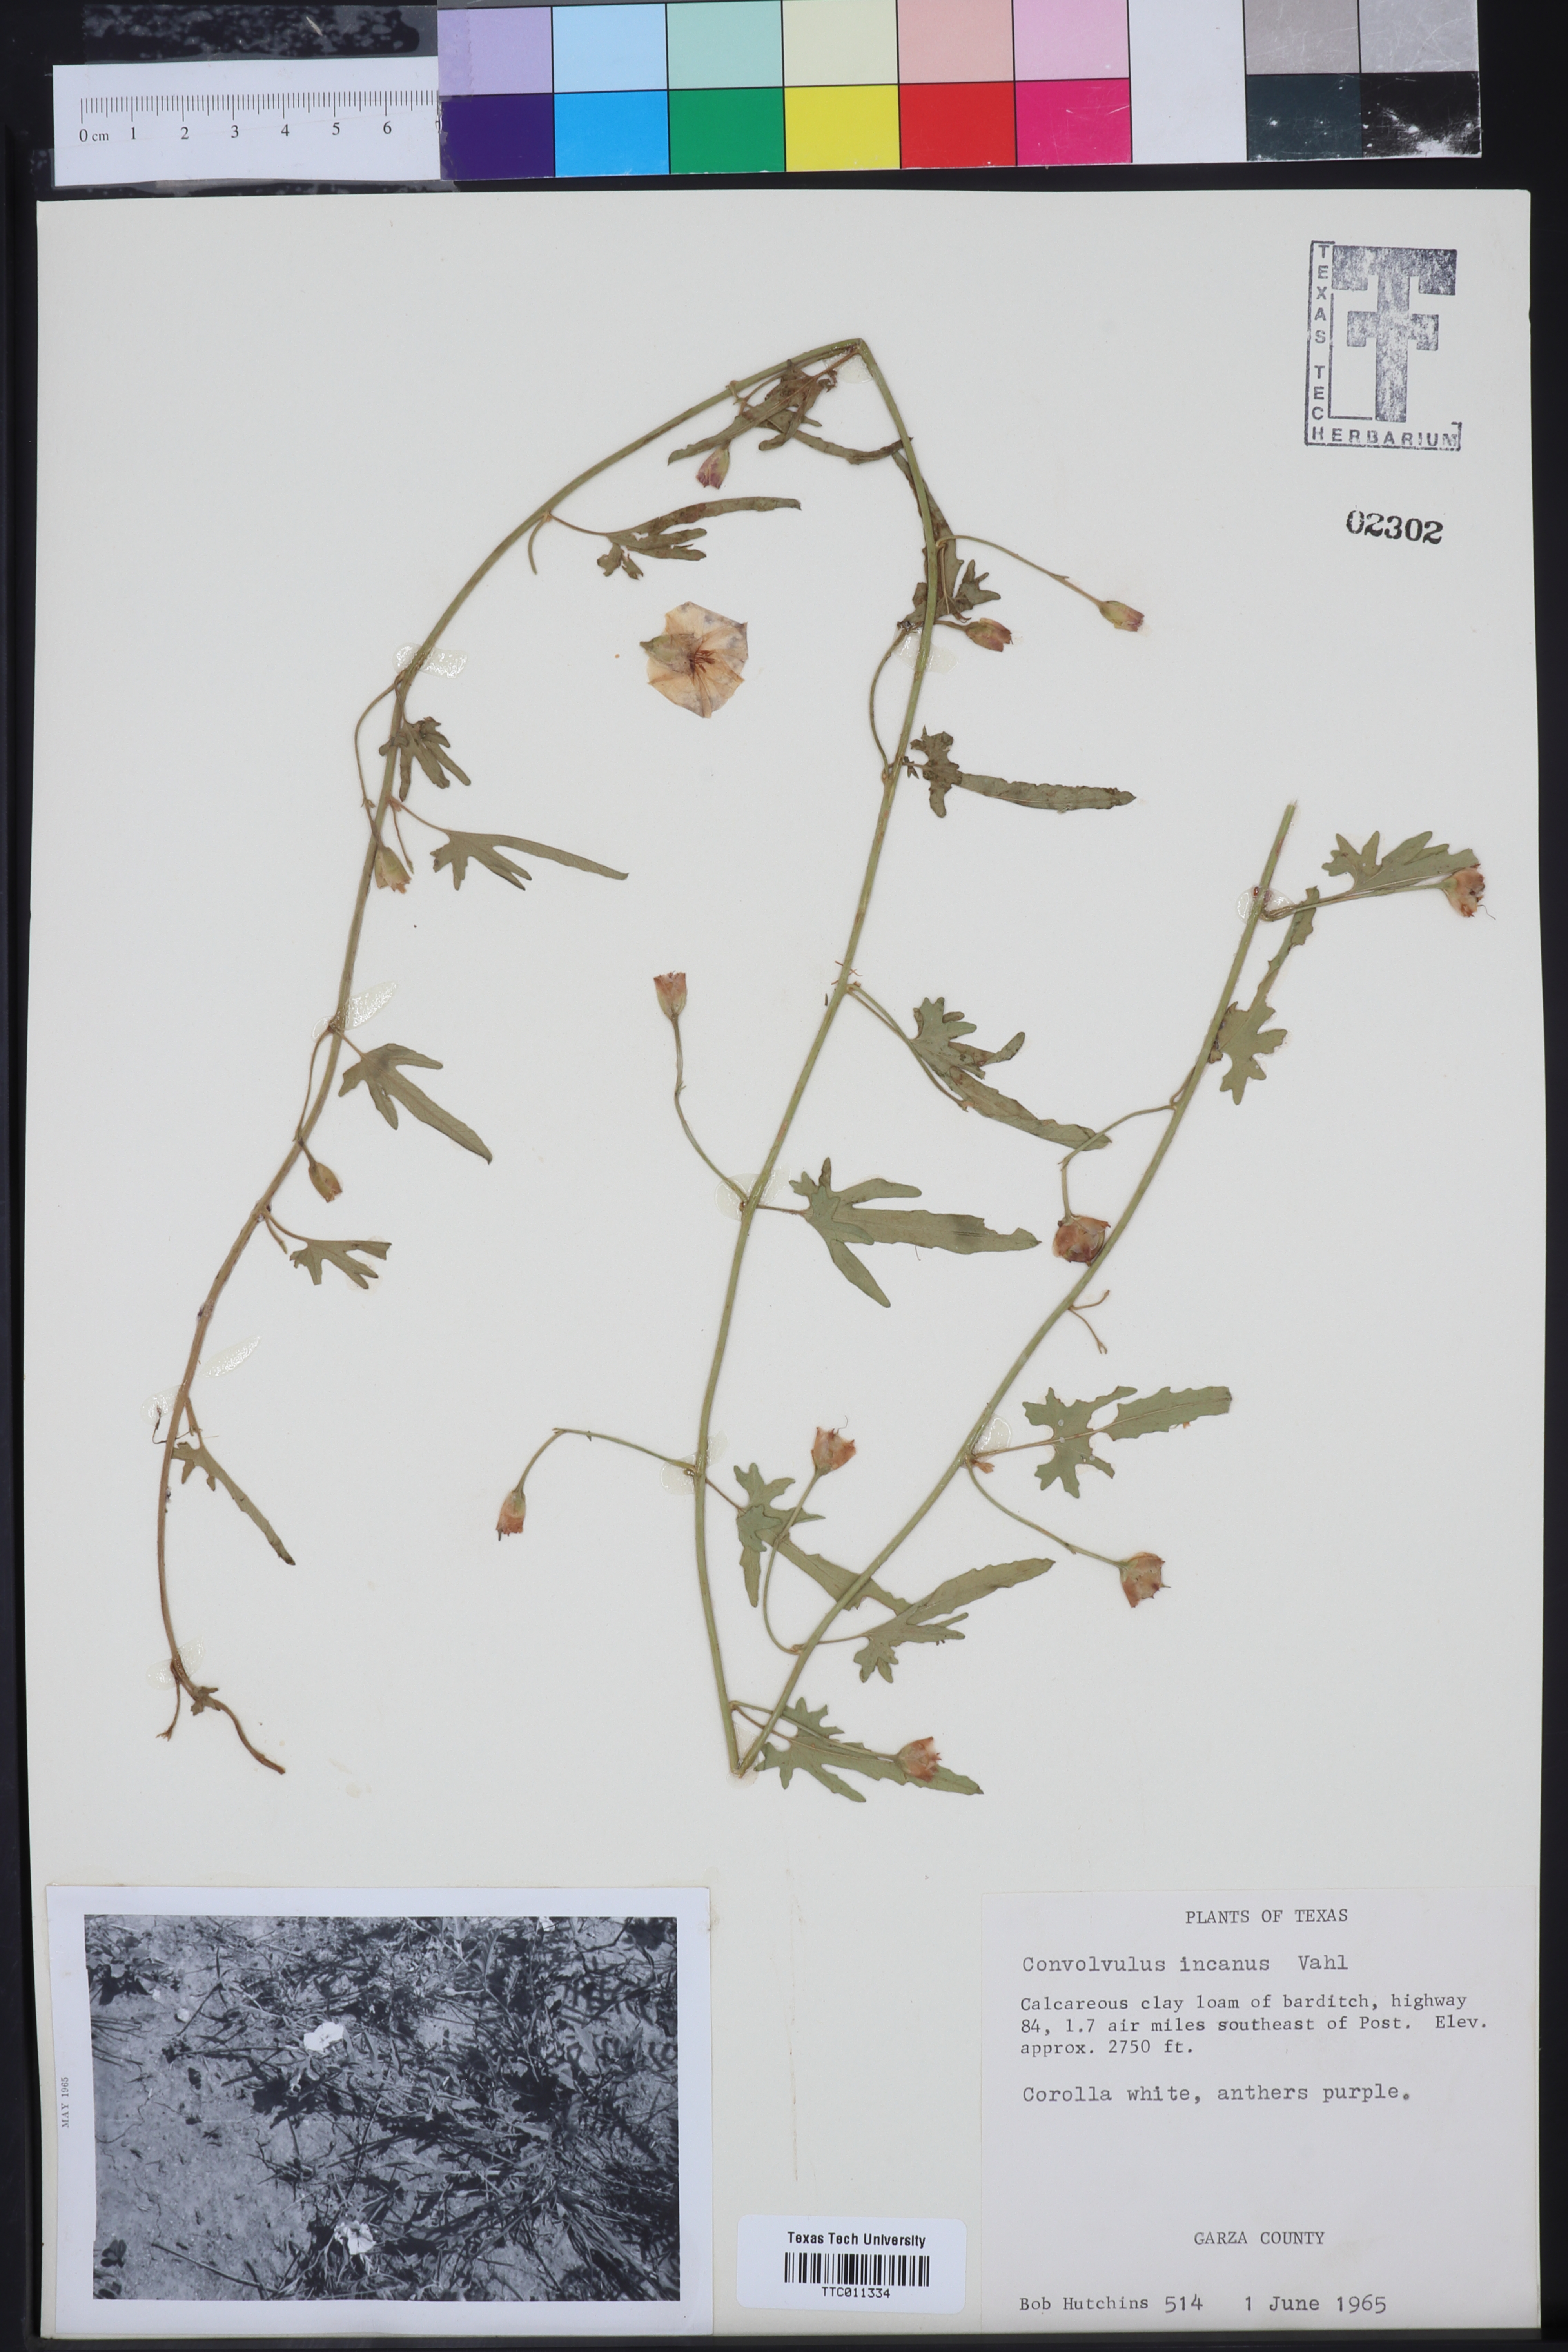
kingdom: Plantae
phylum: Tracheophyta
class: Magnoliopsida
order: Solanales
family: Convolvulaceae
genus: Convolvulus
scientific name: Convolvulus hermanniae
